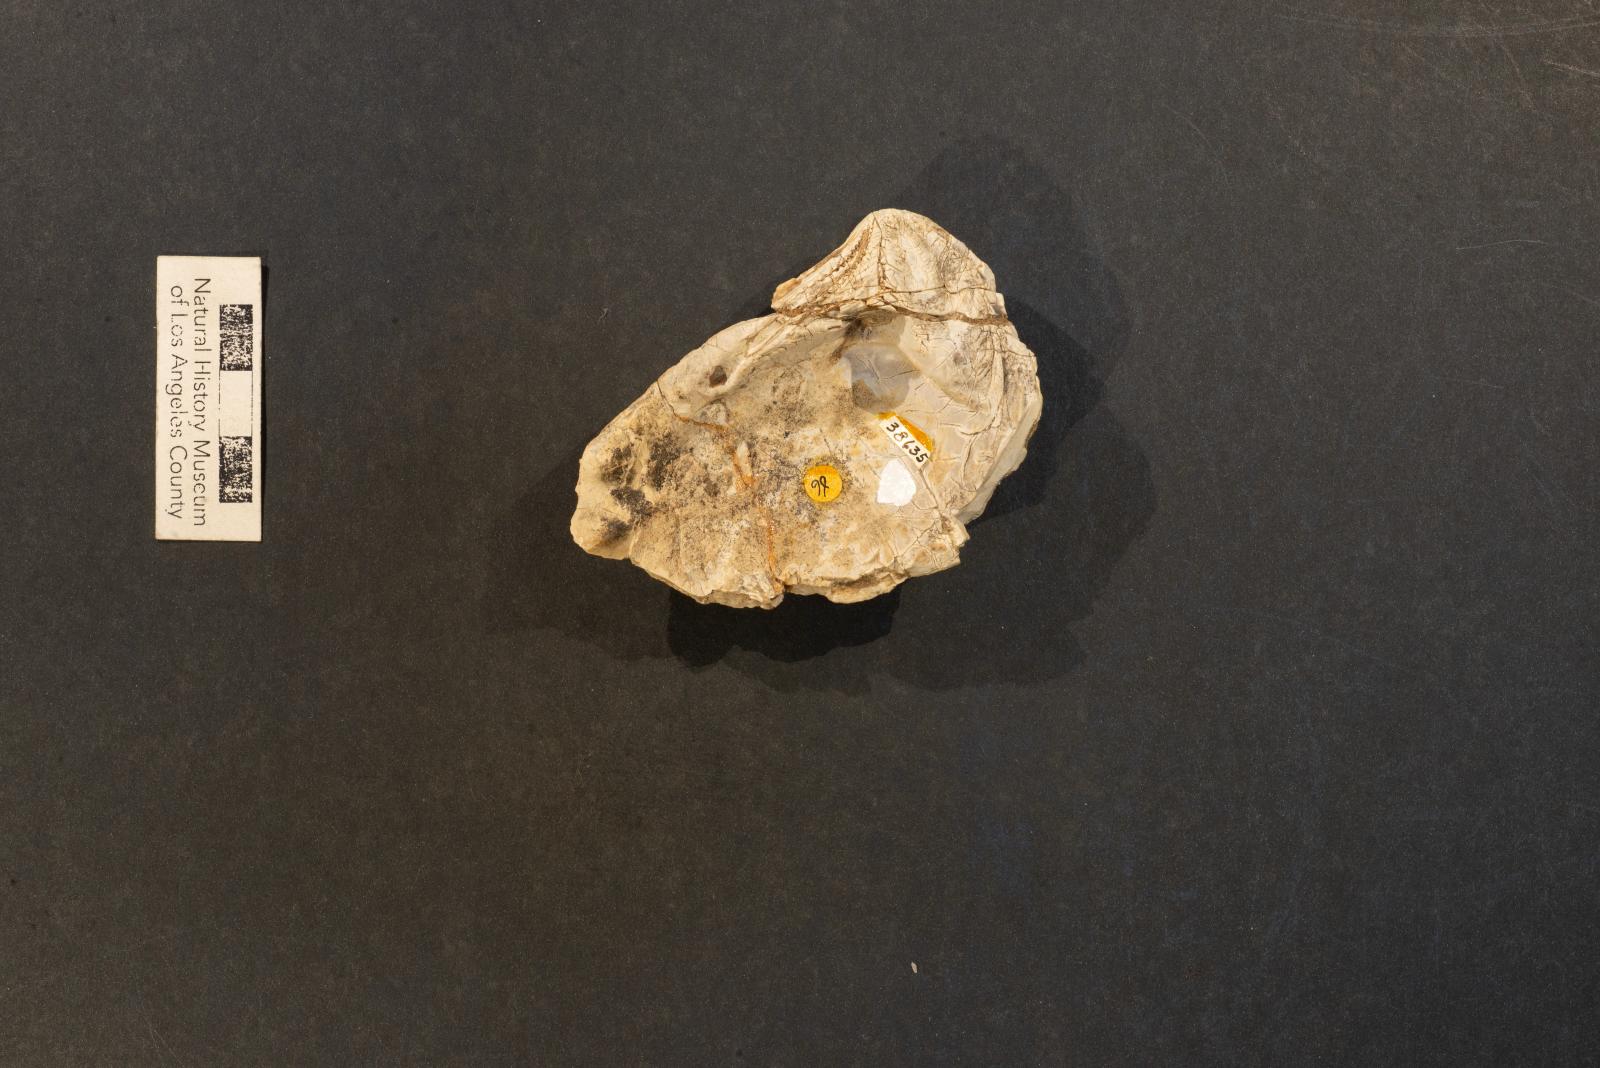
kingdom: Animalia
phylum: Mollusca
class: Bivalvia
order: Trigoniida
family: Steinmanellidae
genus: Popenoella
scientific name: Popenoella robusta
